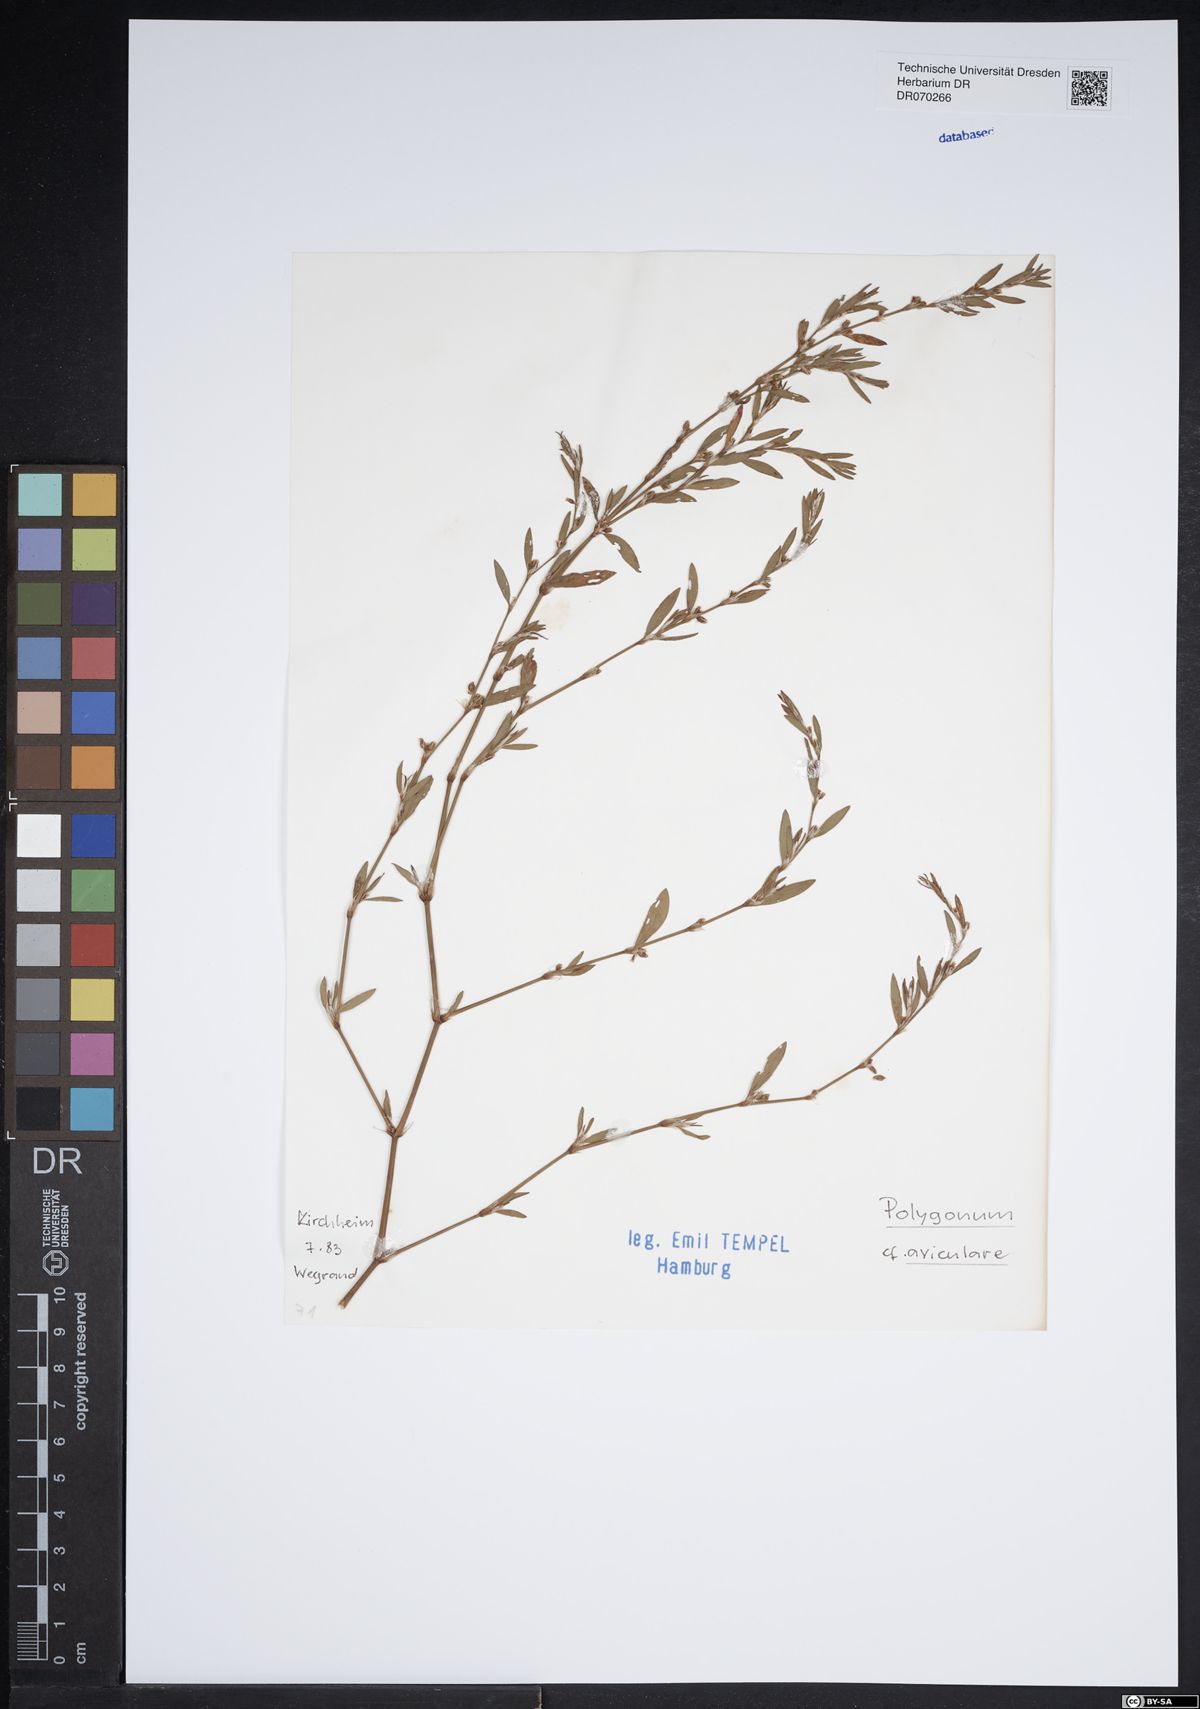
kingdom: Plantae
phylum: Tracheophyta
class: Magnoliopsida
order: Caryophyllales
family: Polygonaceae
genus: Polygonum
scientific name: Polygonum aviculare
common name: Prostrate knotweed
